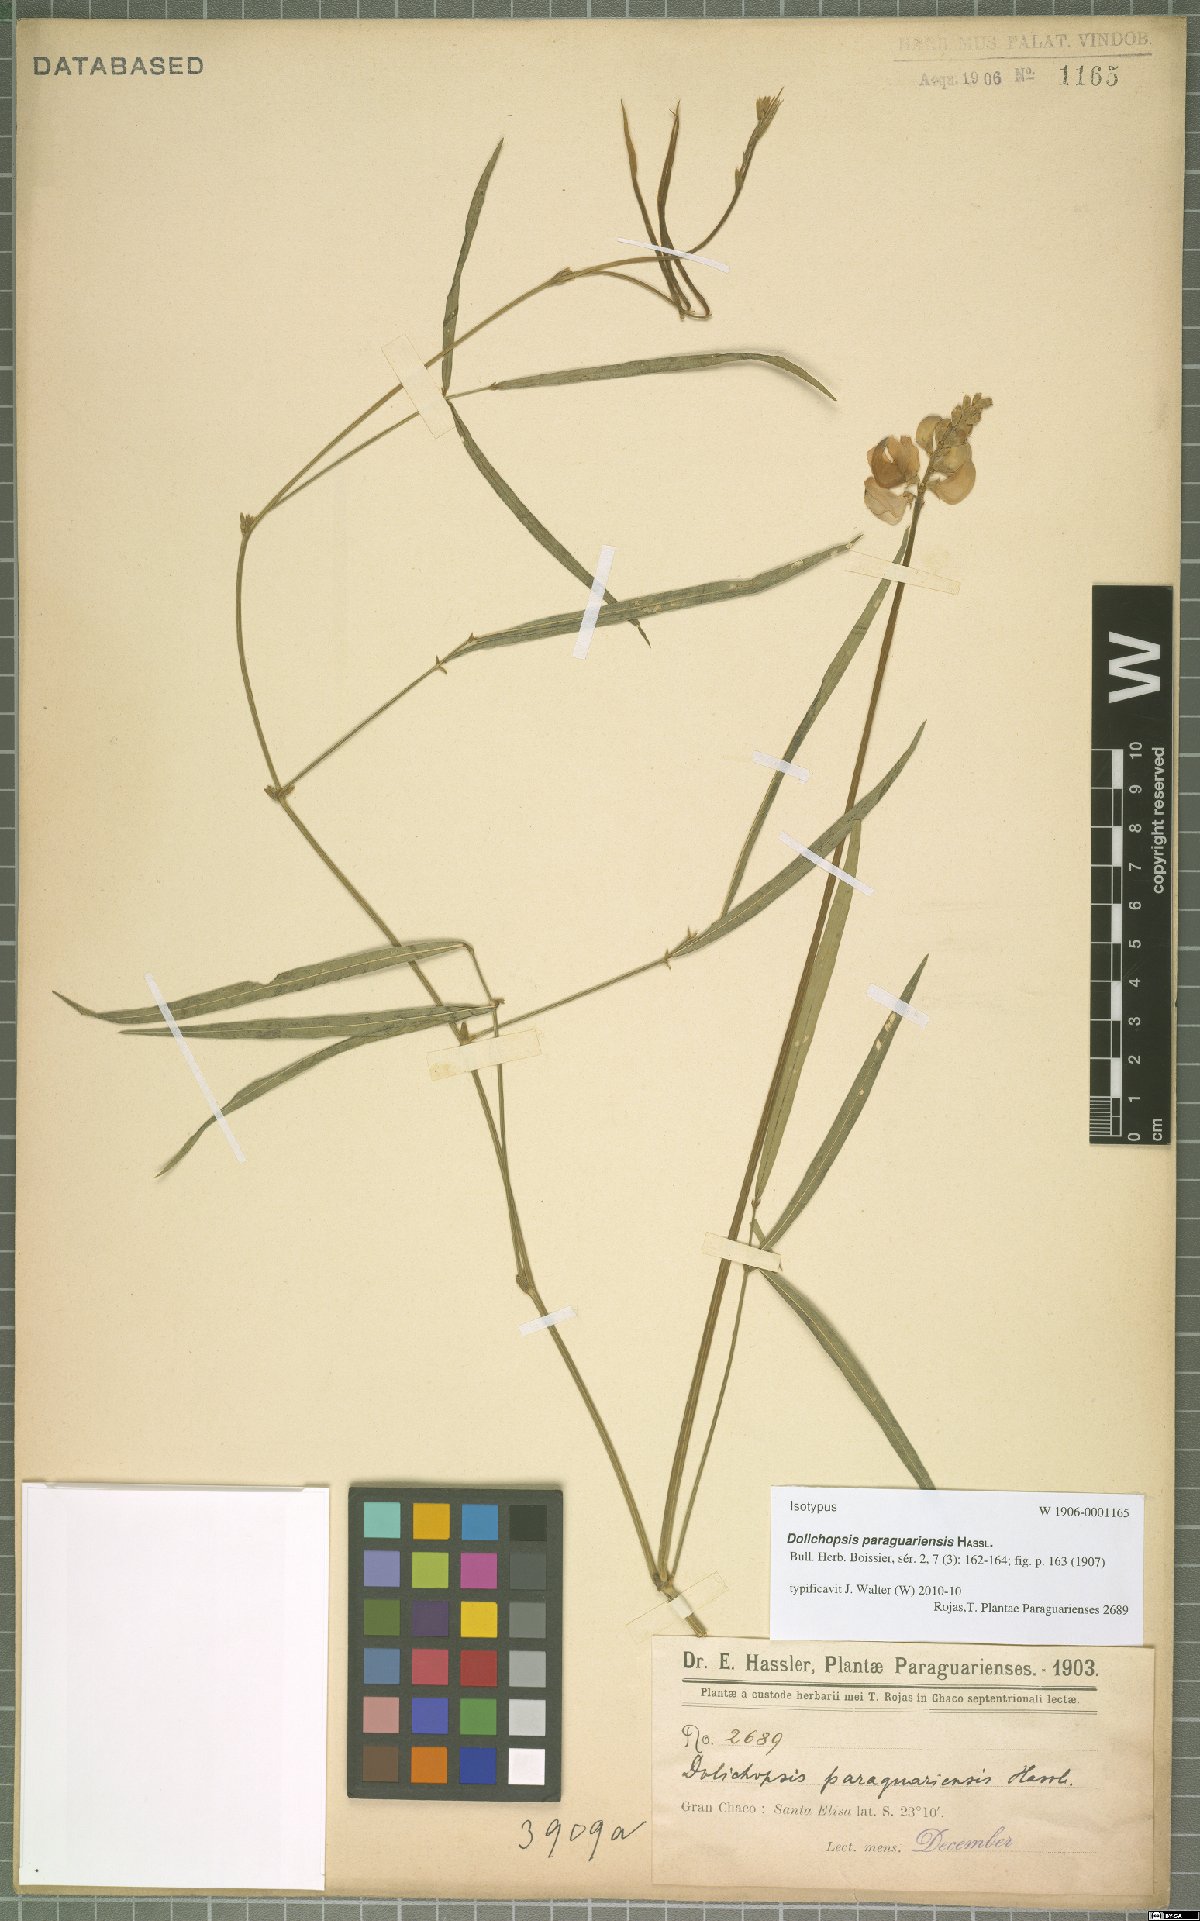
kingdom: Plantae
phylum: Tracheophyta
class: Magnoliopsida
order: Fabales
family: Fabaceae
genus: Dolichopsis
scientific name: Dolichopsis paraguariensis
